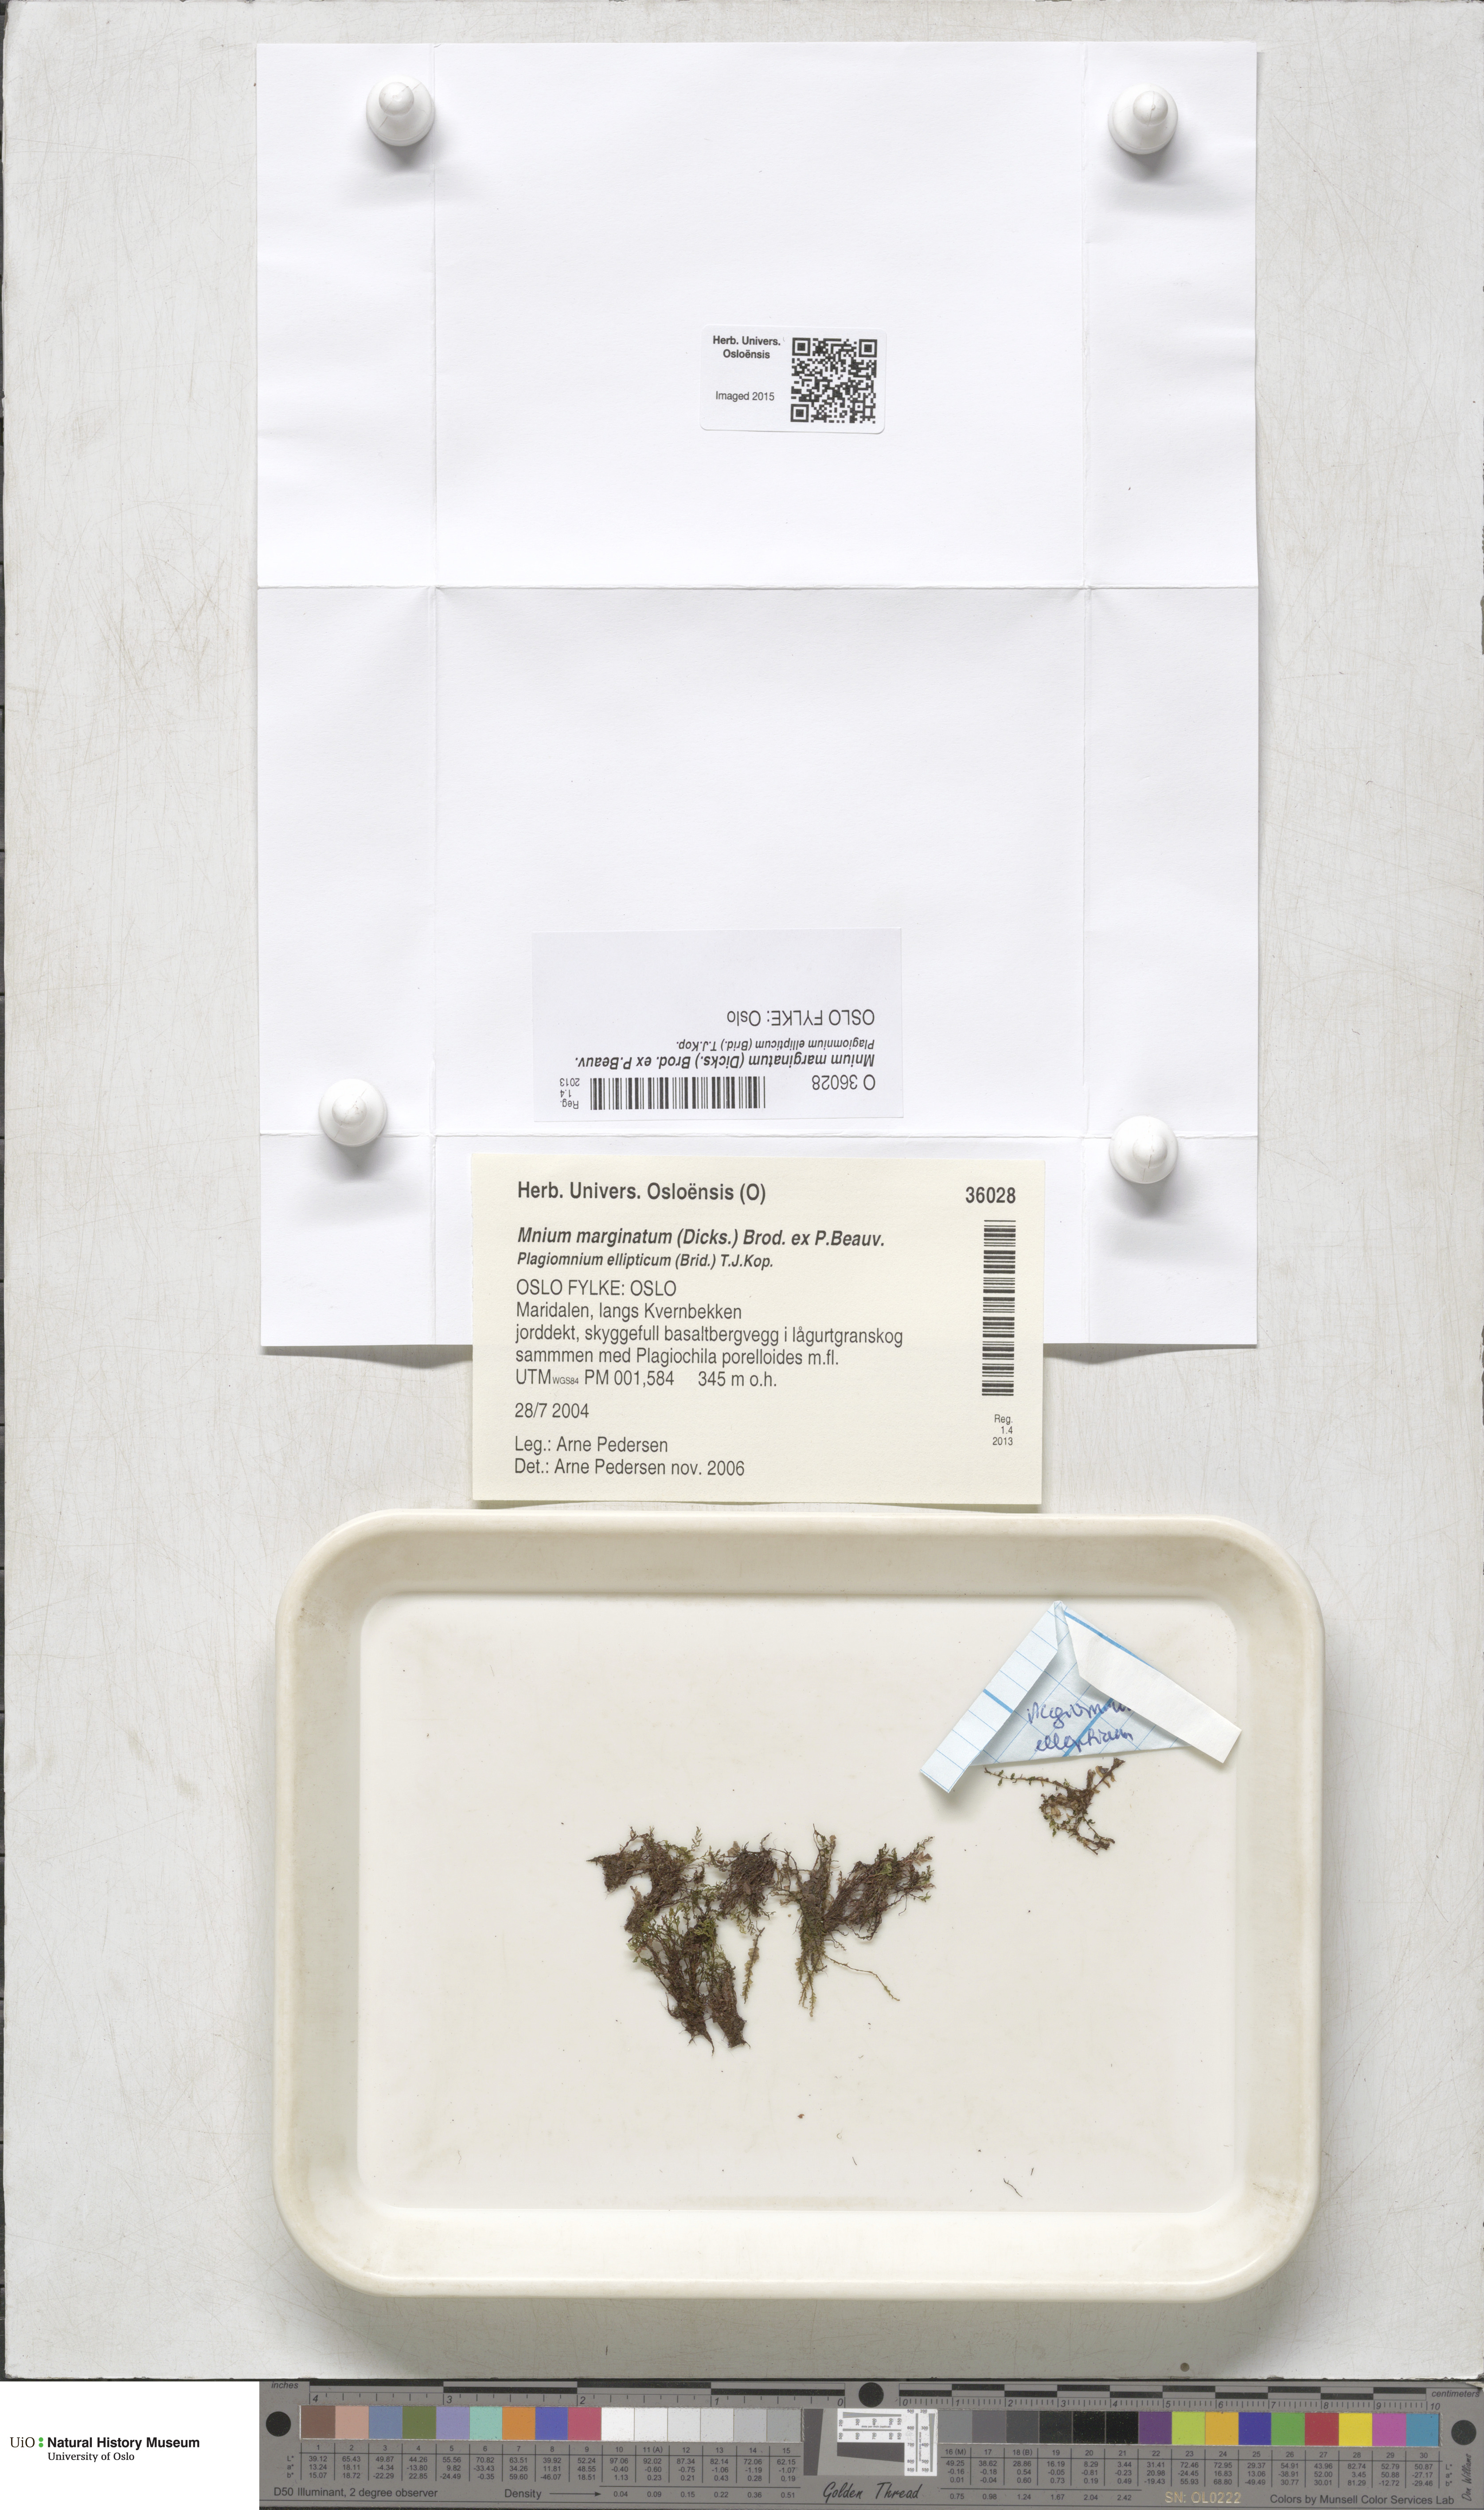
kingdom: Plantae
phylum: Bryophyta
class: Bryopsida
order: Bryales
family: Mniaceae
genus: Mnium
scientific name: Mnium marginatum
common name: Bordered leafy moss
